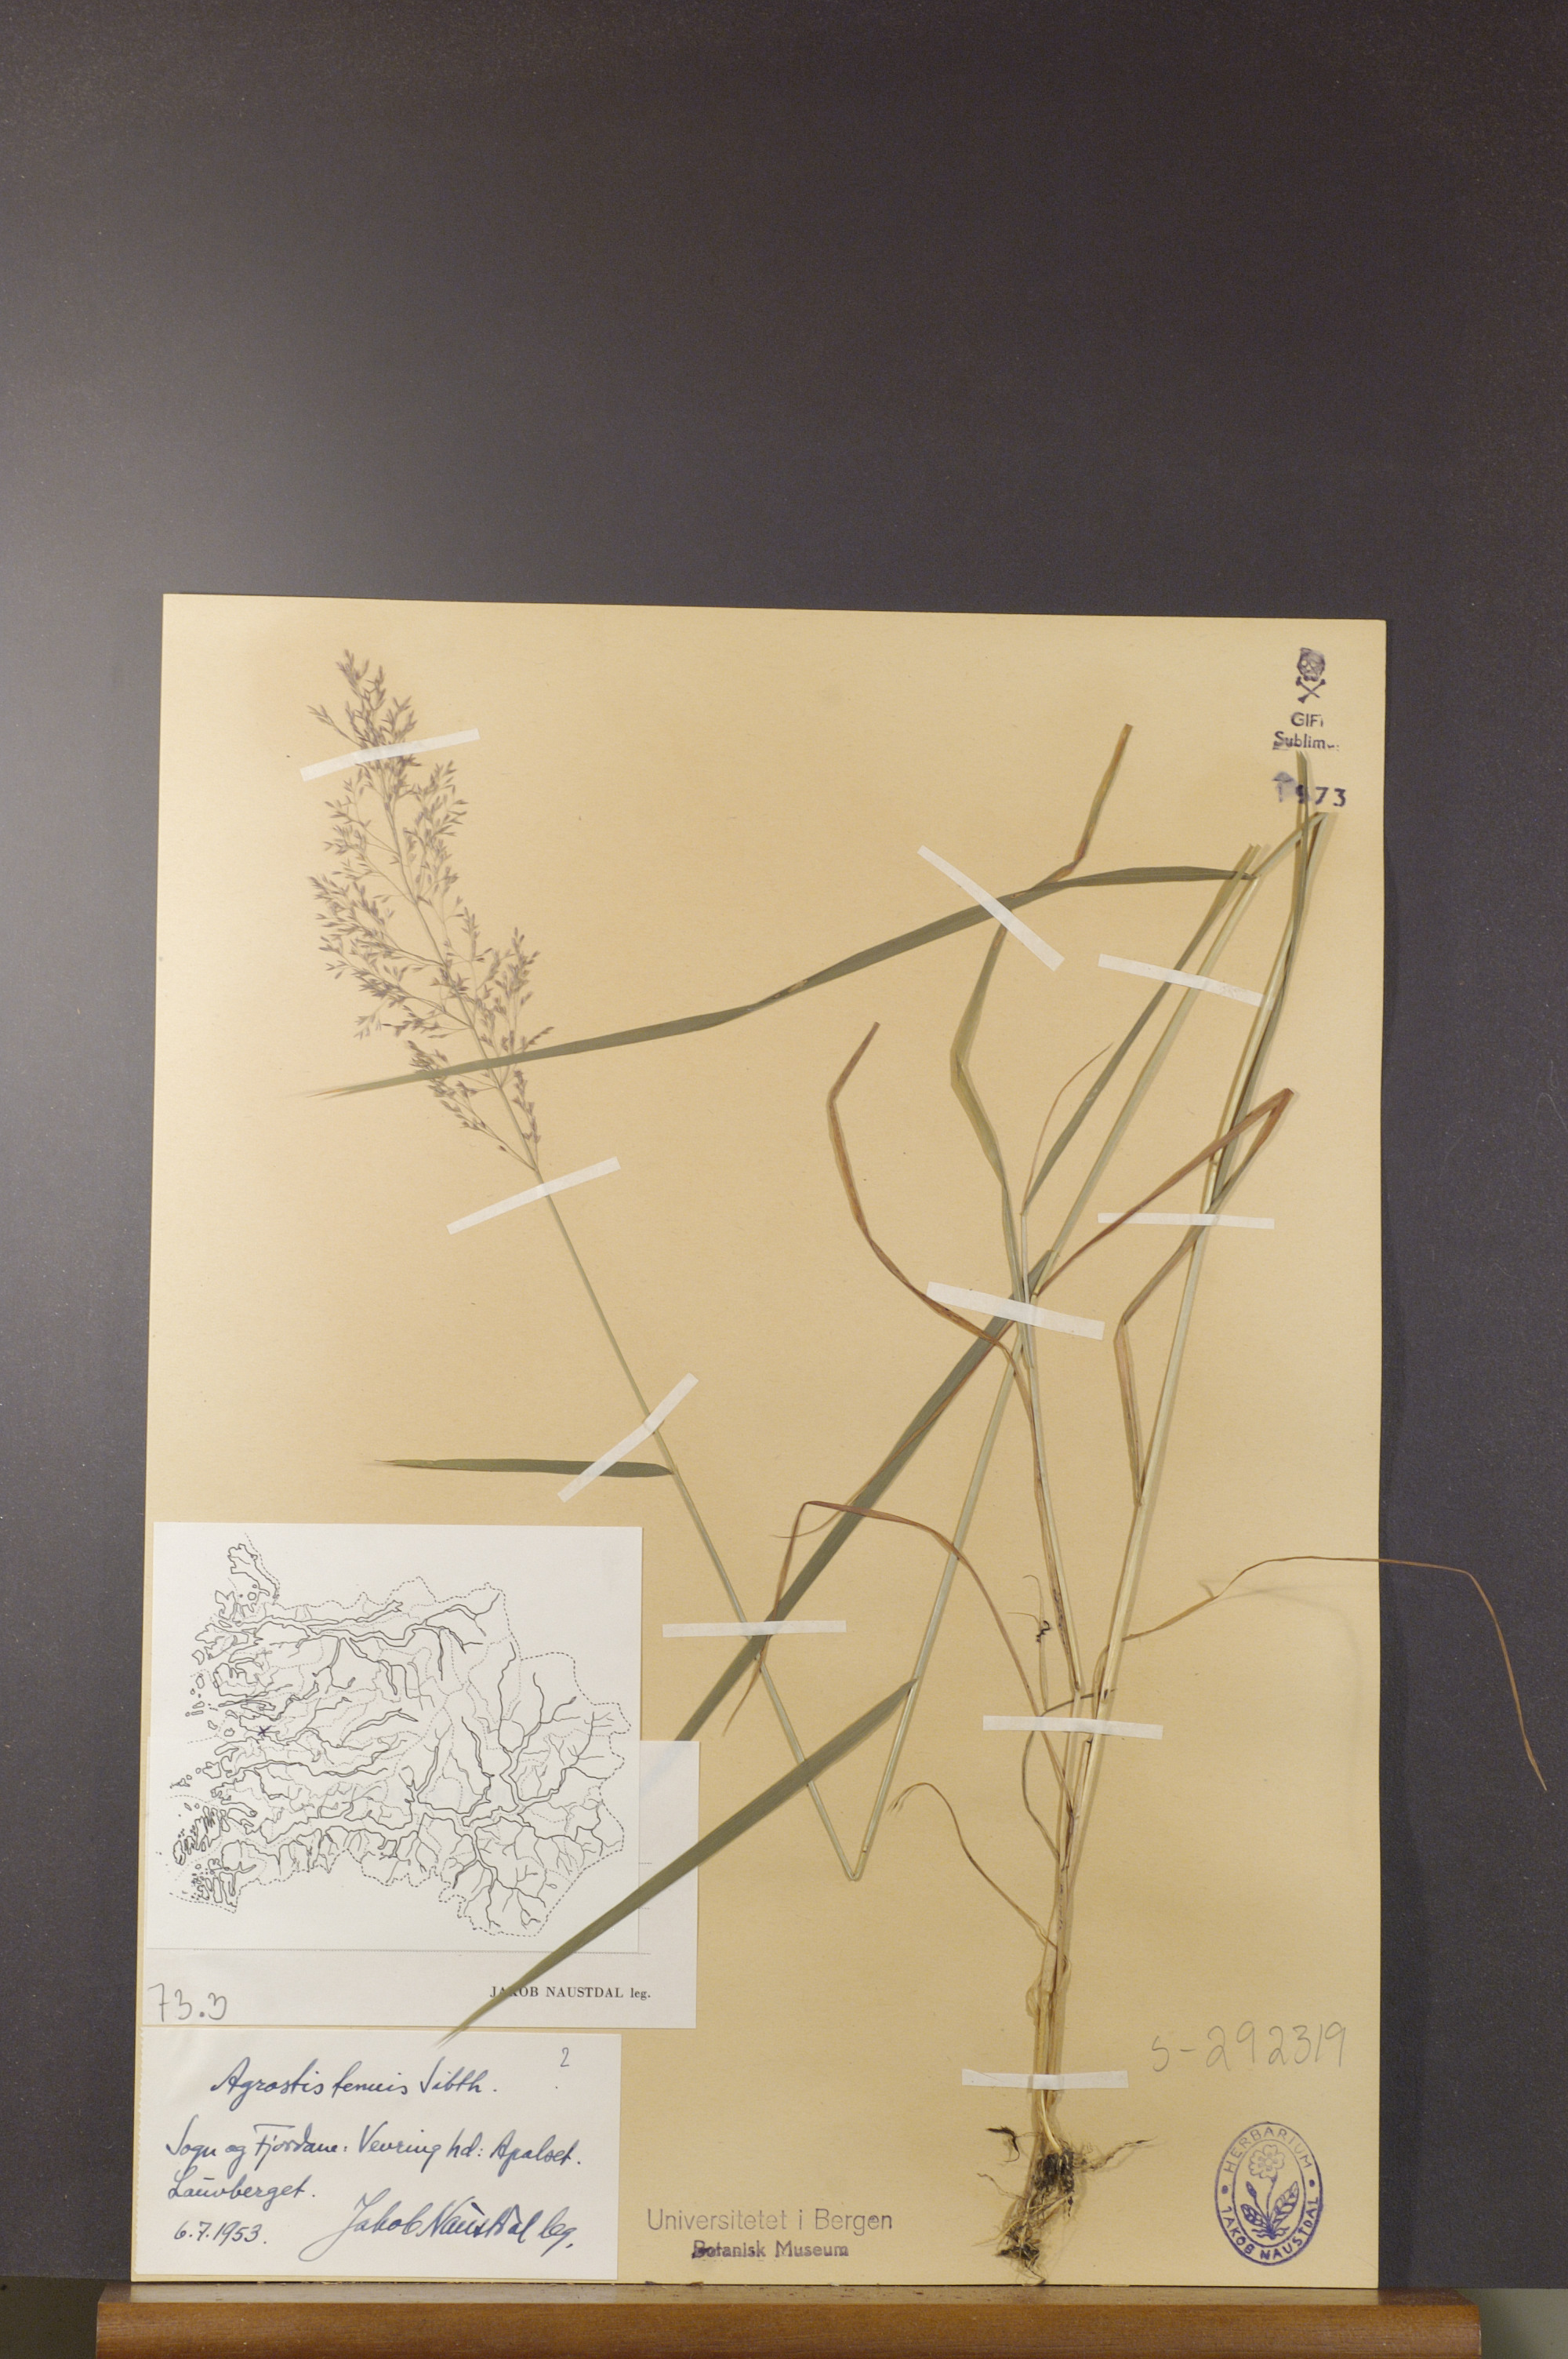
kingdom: Plantae
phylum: Tracheophyta
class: Liliopsida
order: Poales
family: Poaceae
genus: Agrostis
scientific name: Agrostis capillaris
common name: Colonial bentgrass
